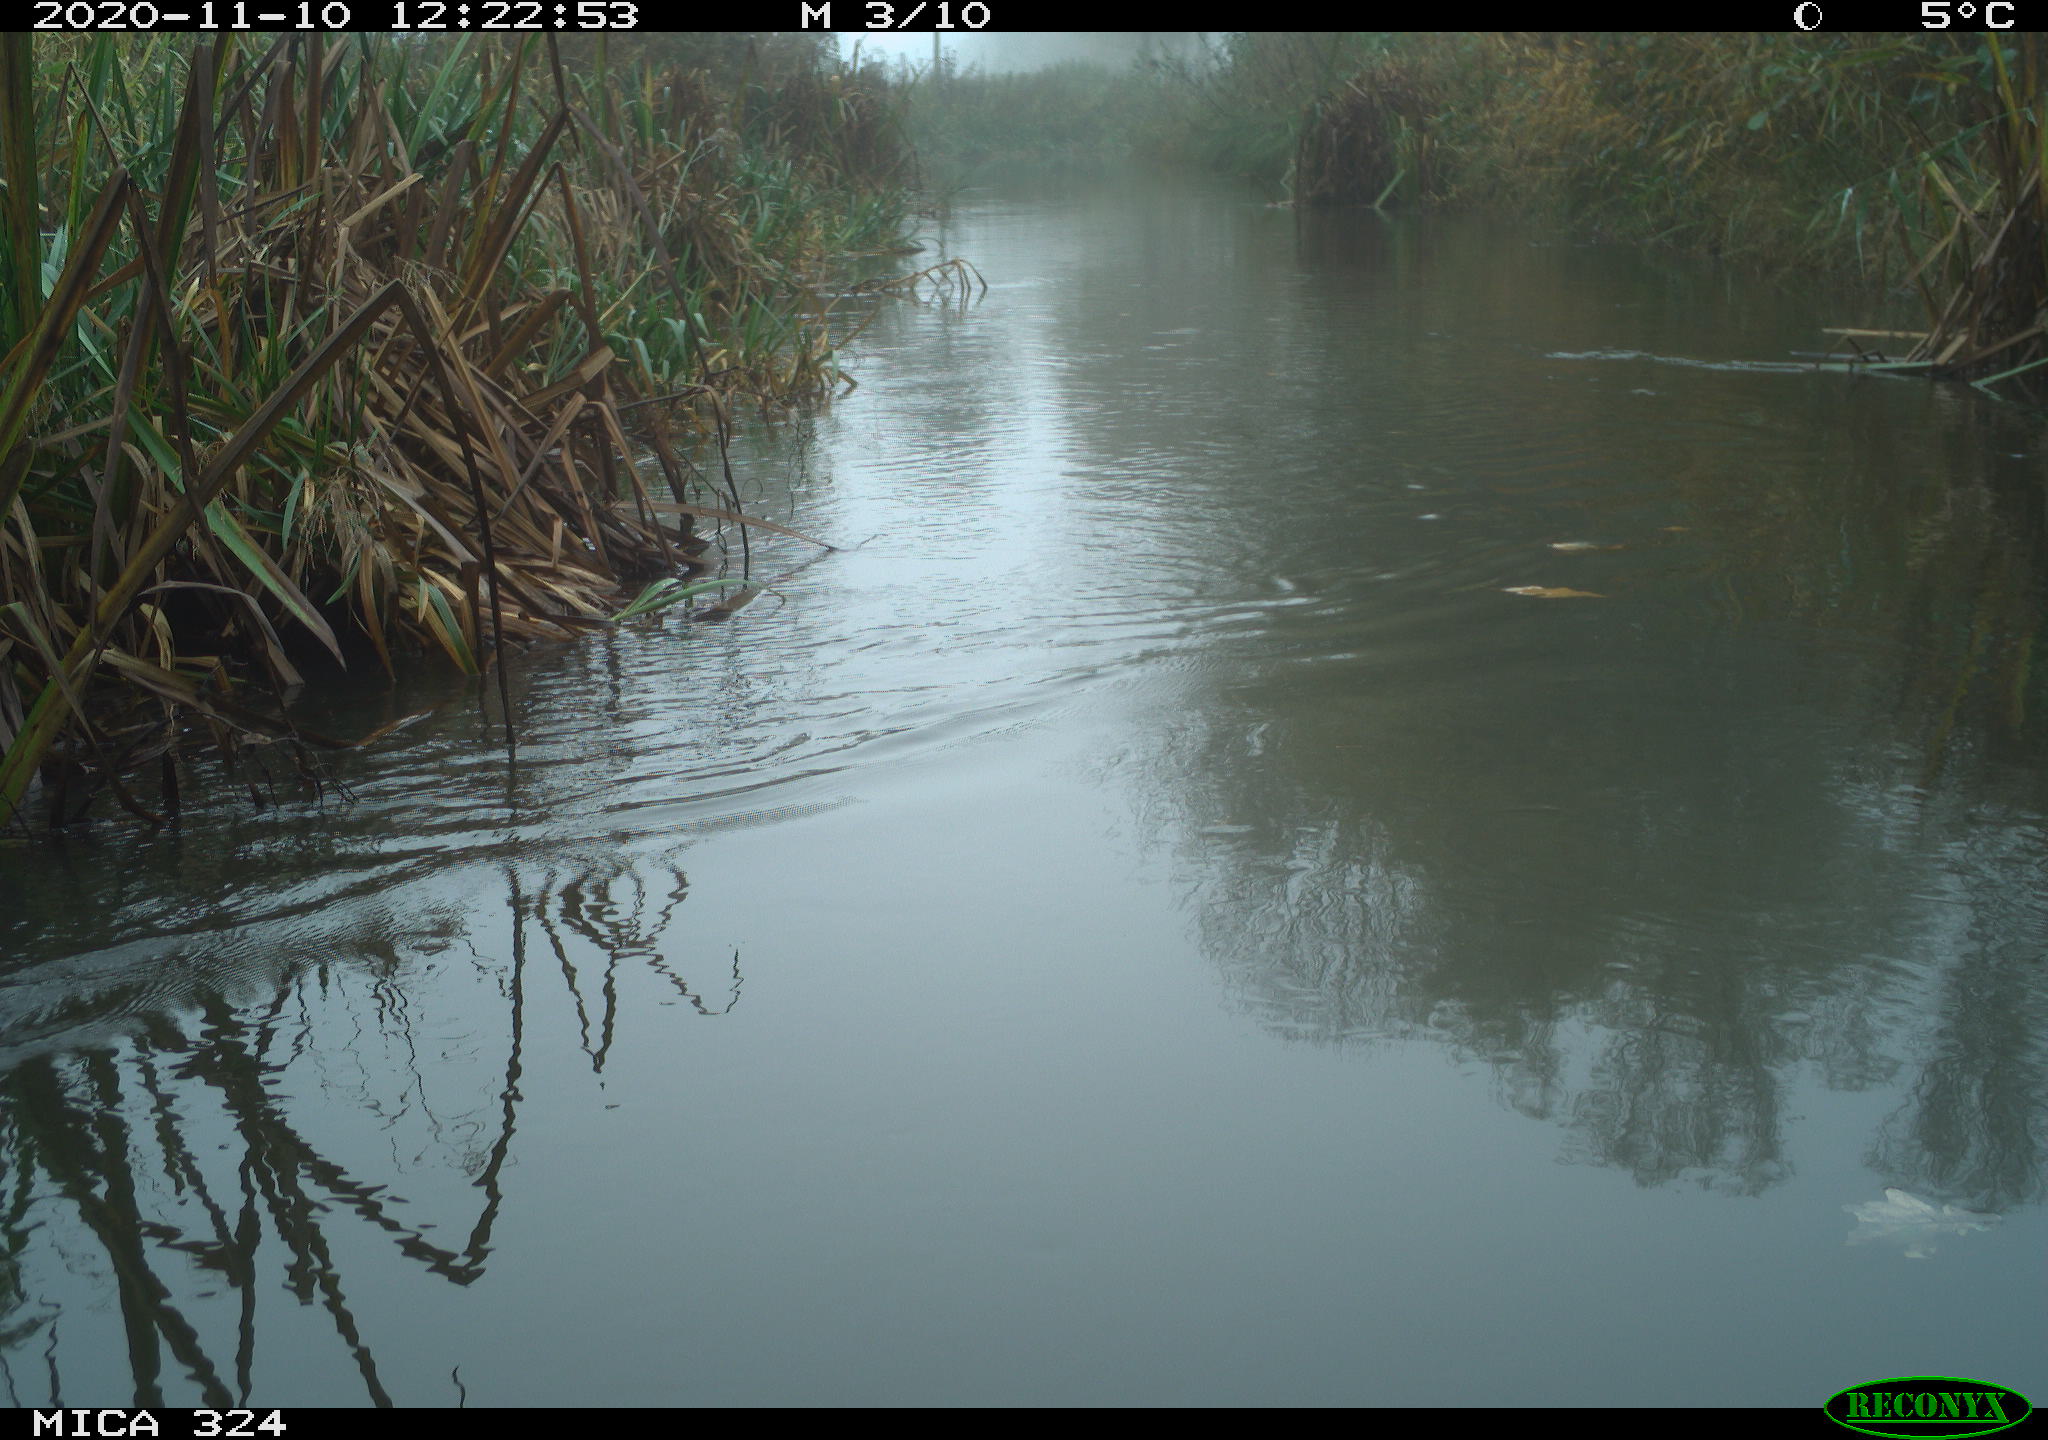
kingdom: Animalia
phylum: Chordata
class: Aves
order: Gruiformes
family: Rallidae
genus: Gallinula
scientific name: Gallinula chloropus
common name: Common moorhen
